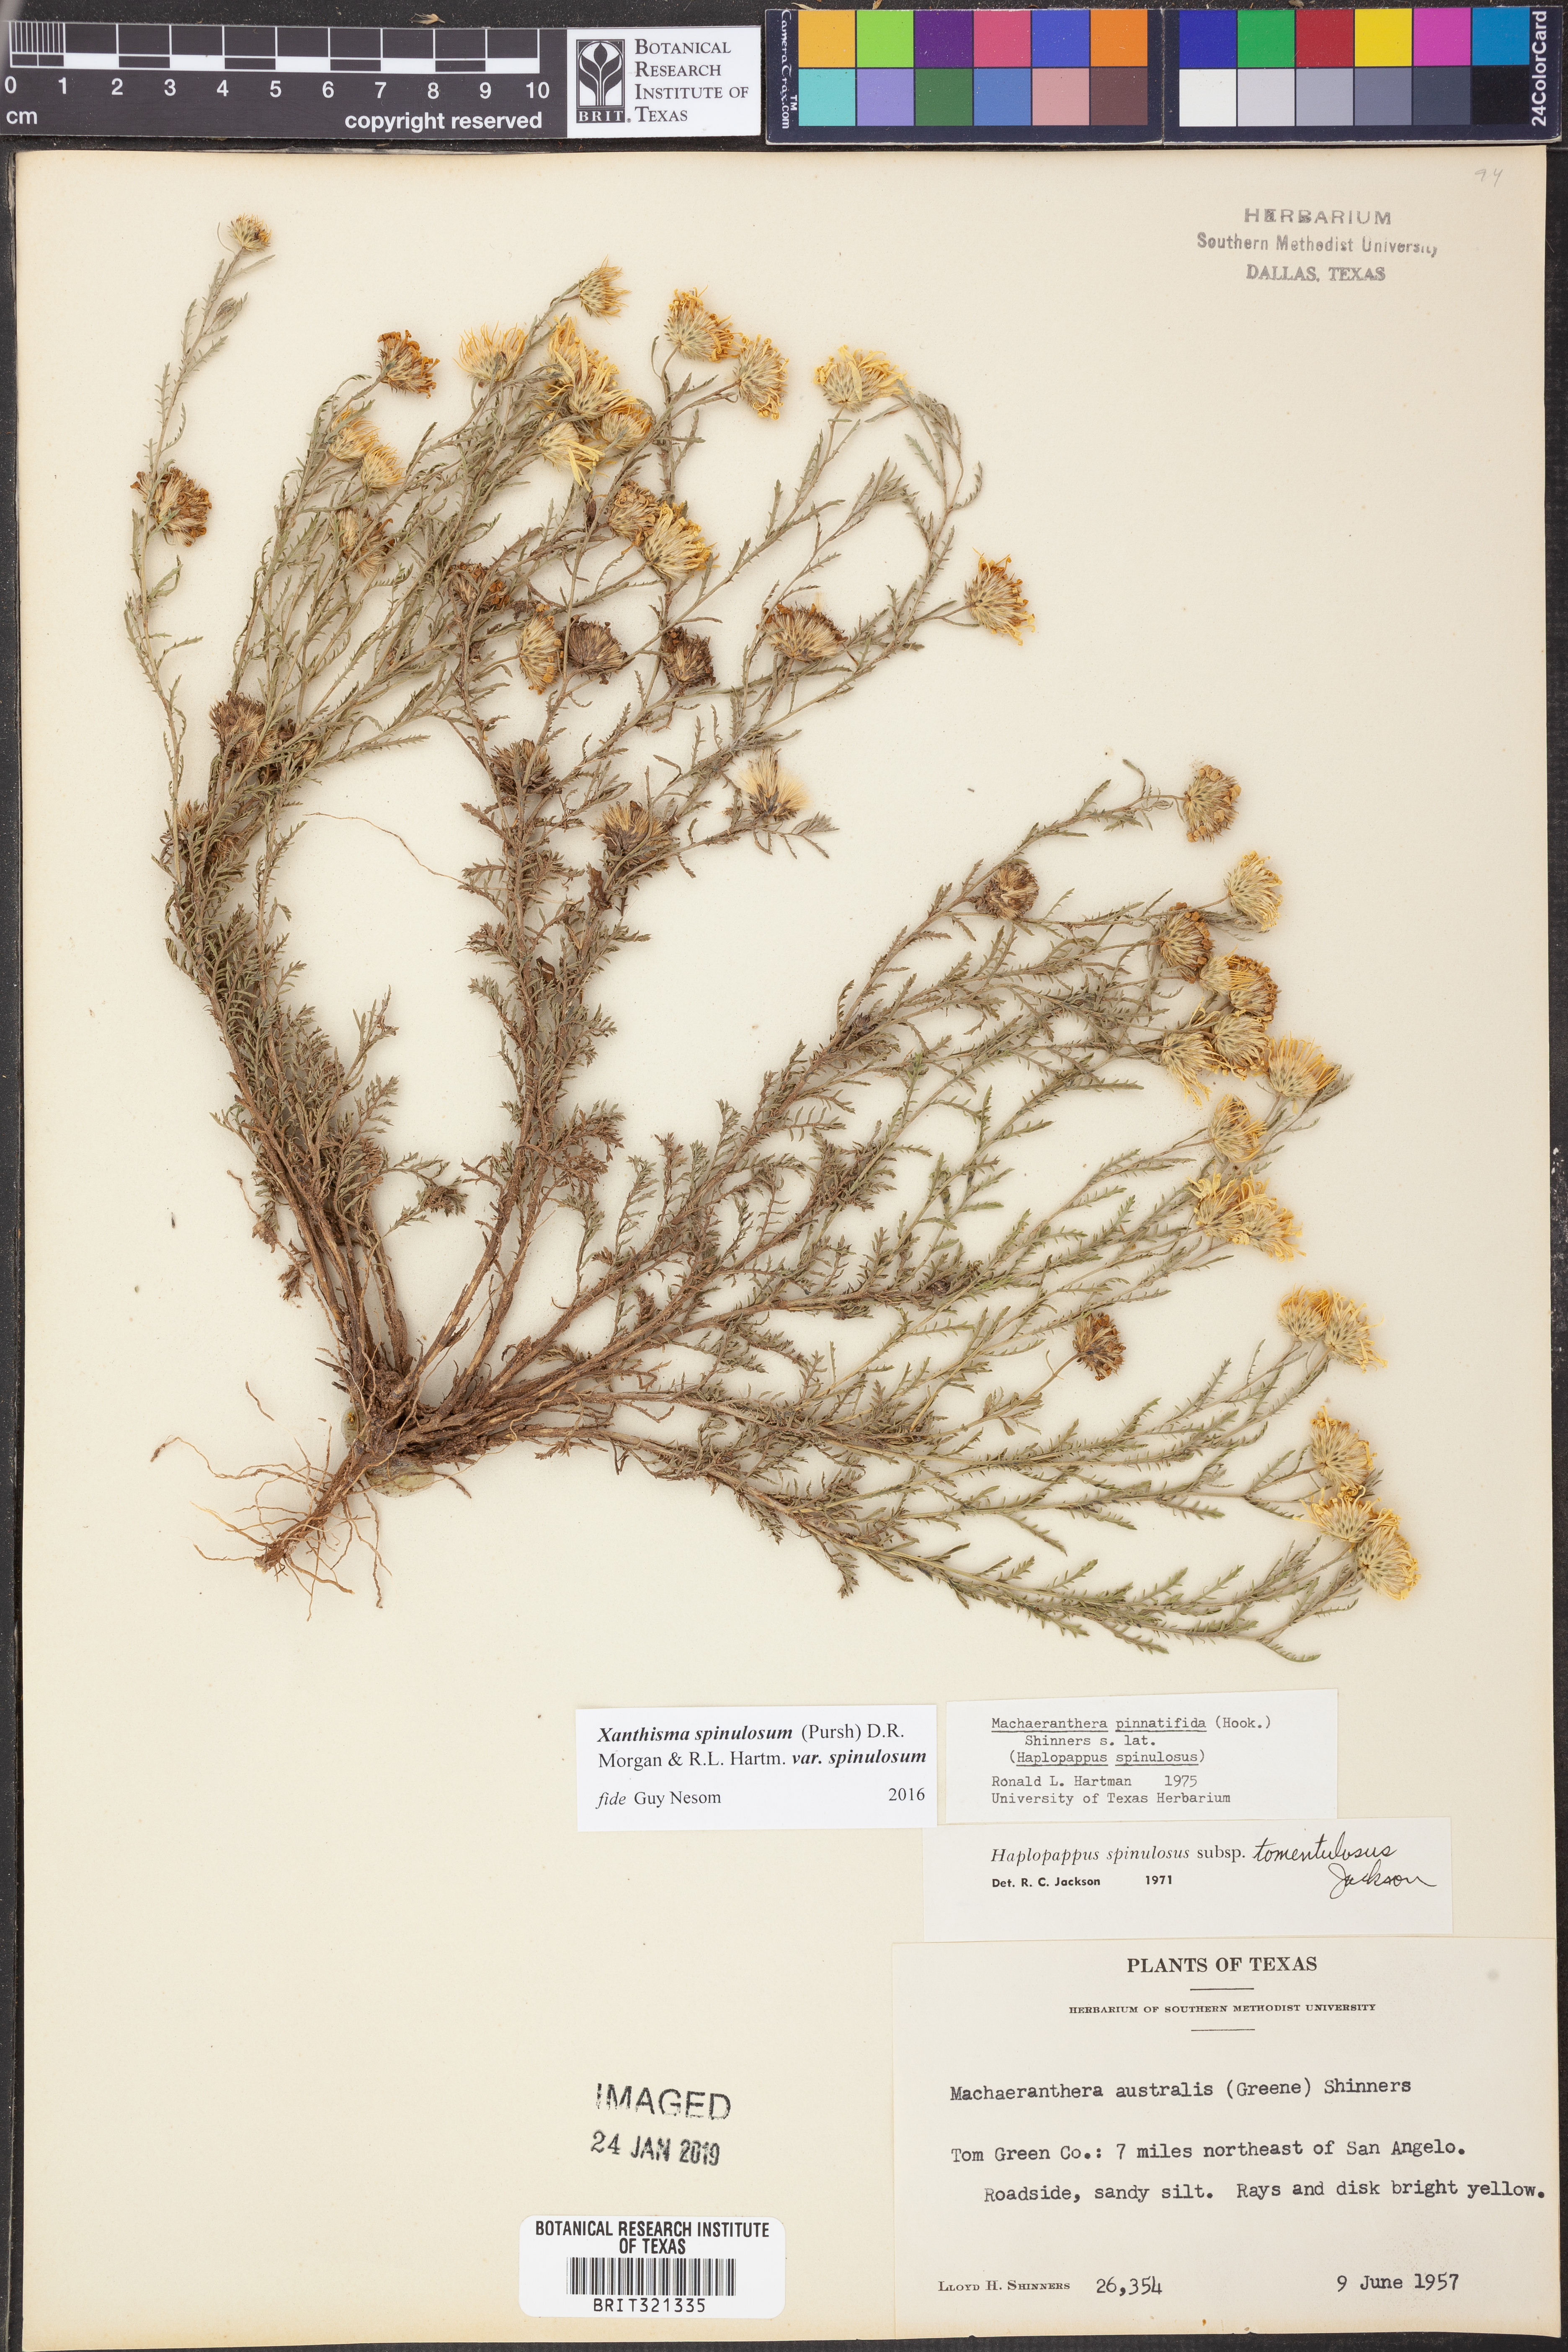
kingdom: Plantae
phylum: Tracheophyta
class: Magnoliopsida
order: Asterales
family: Asteraceae
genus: Xanthisma
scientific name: Xanthisma spinulosum
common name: Spiny goldenweed
